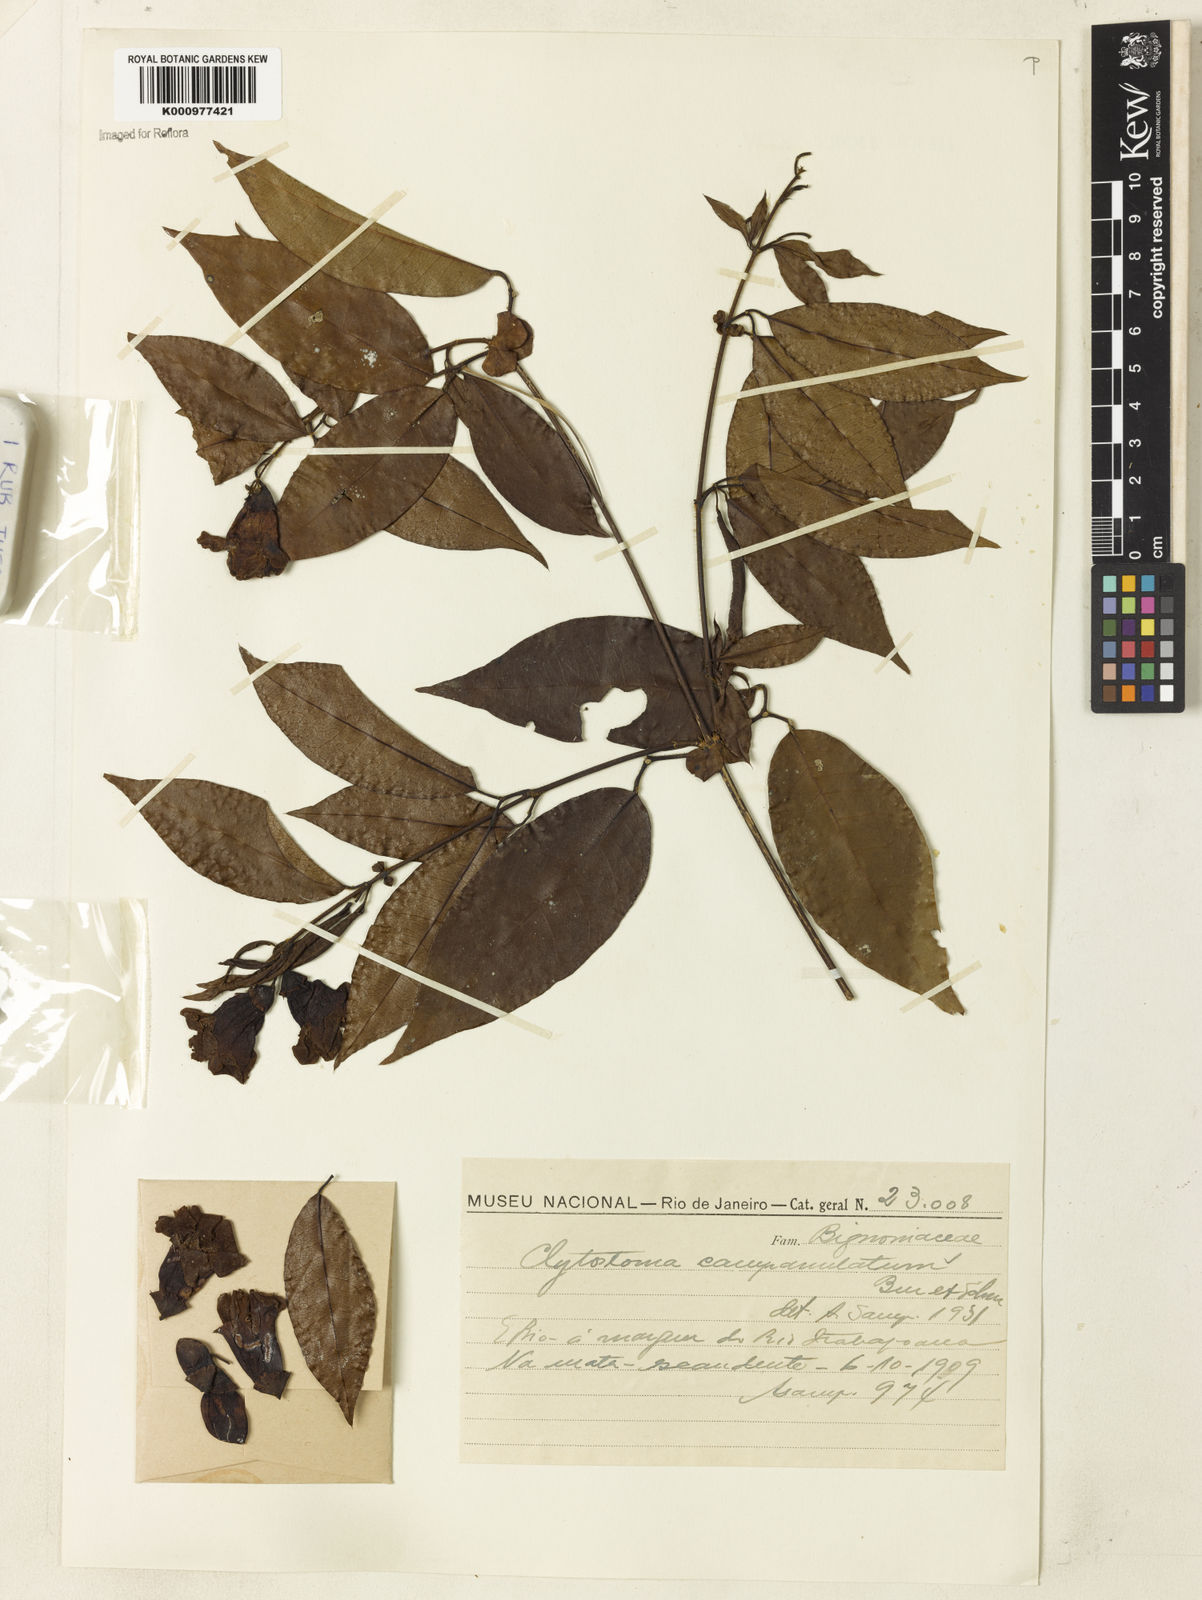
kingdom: Plantae
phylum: Tracheophyta
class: Magnoliopsida
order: Lamiales
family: Bignoniaceae
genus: Bignonia
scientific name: Bignonia campanulata
